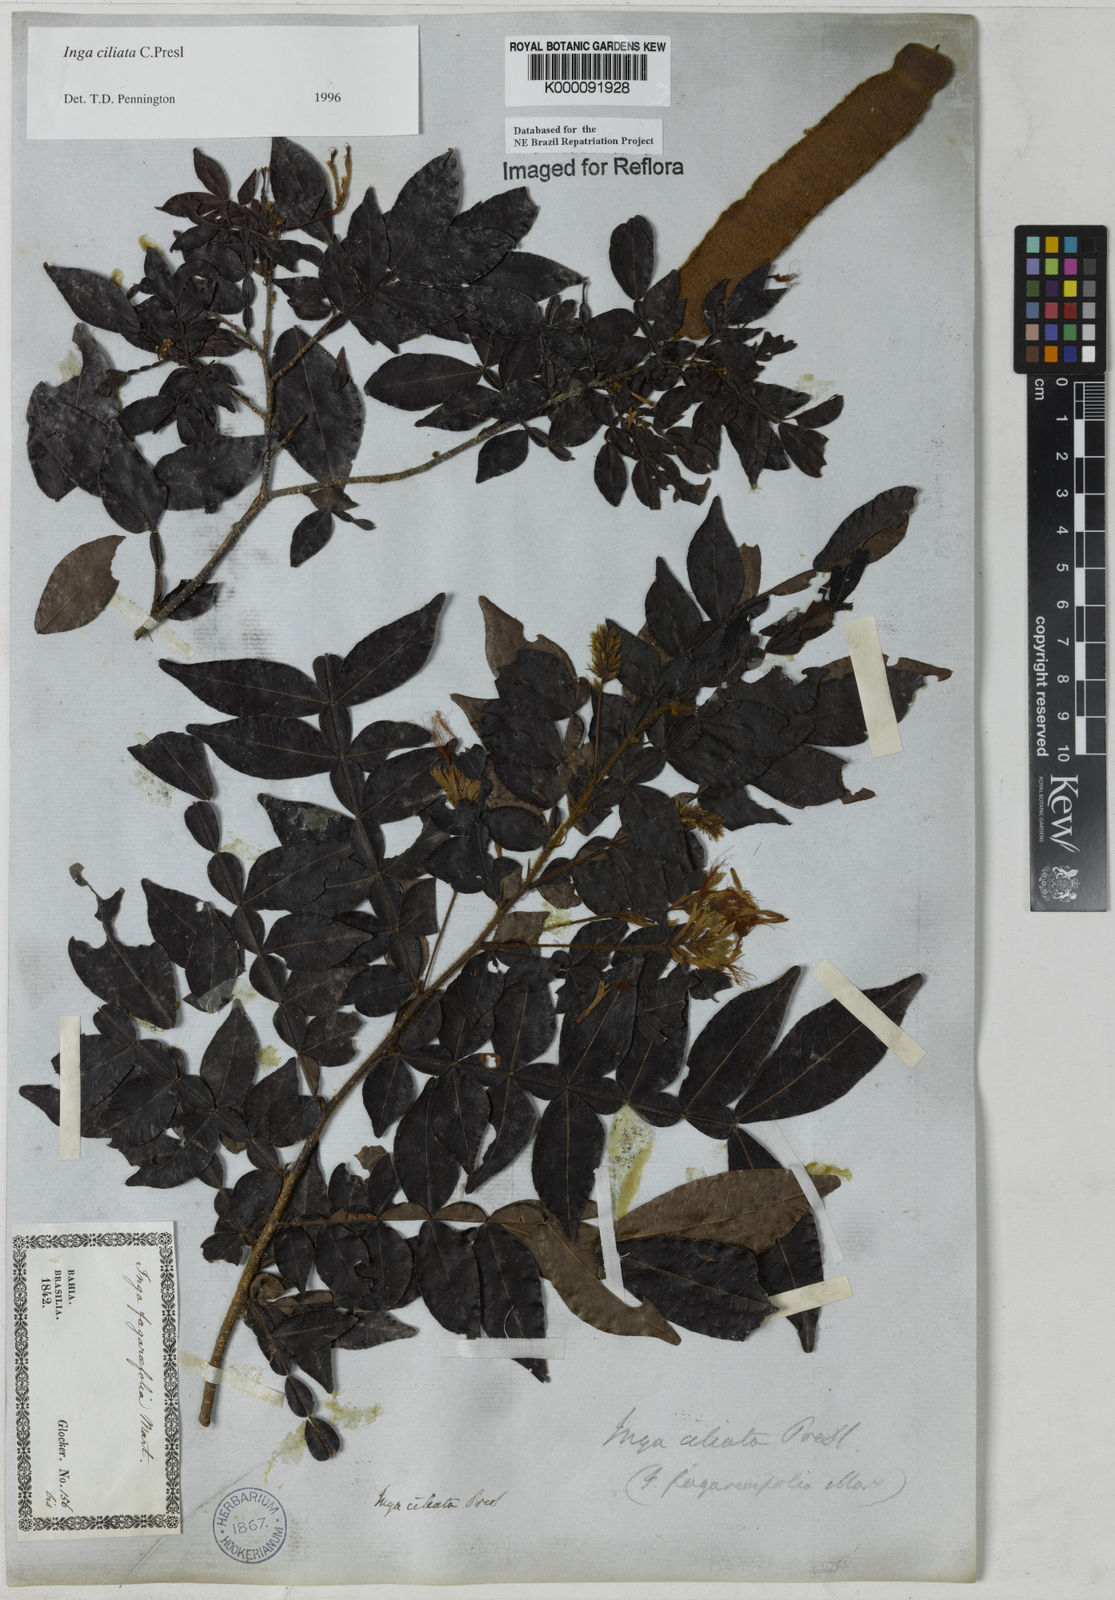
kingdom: Plantae
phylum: Tracheophyta
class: Magnoliopsida
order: Fabales
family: Fabaceae
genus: Inga
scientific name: Inga ciliata
